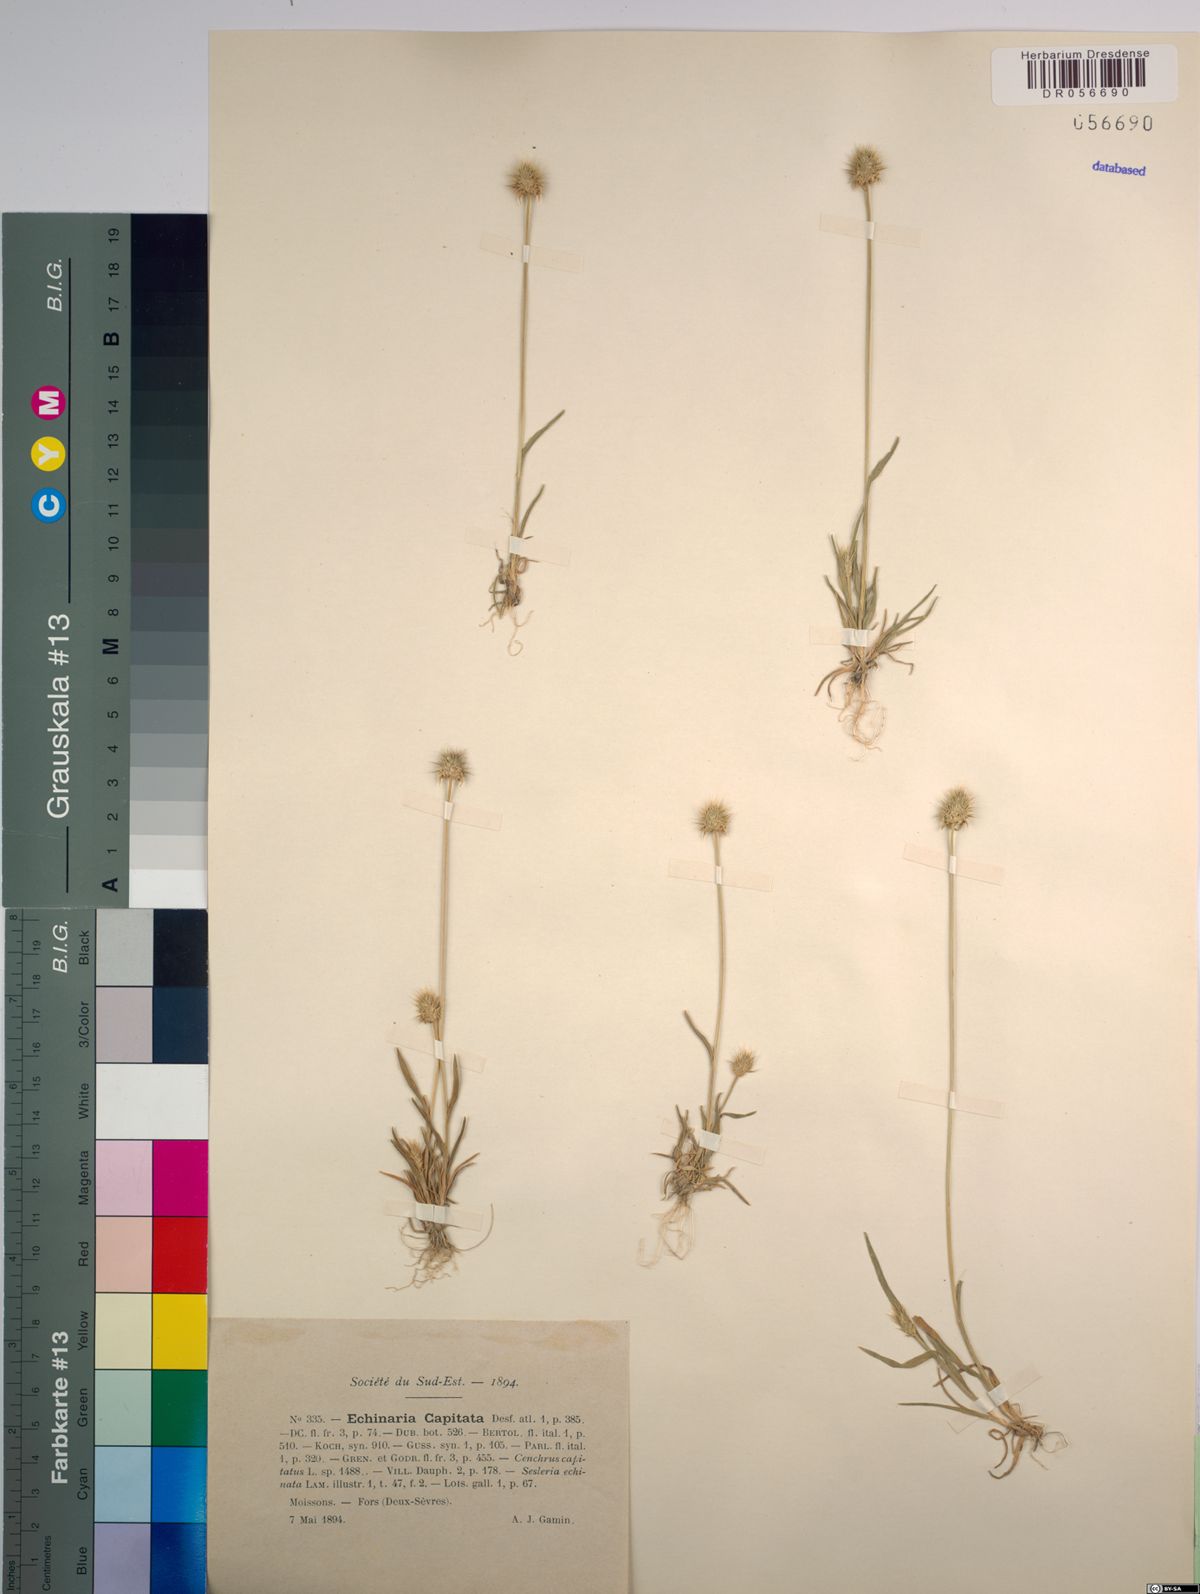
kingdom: Plantae
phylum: Tracheophyta
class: Liliopsida
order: Poales
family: Poaceae
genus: Echinaria
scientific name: Echinaria capitata
